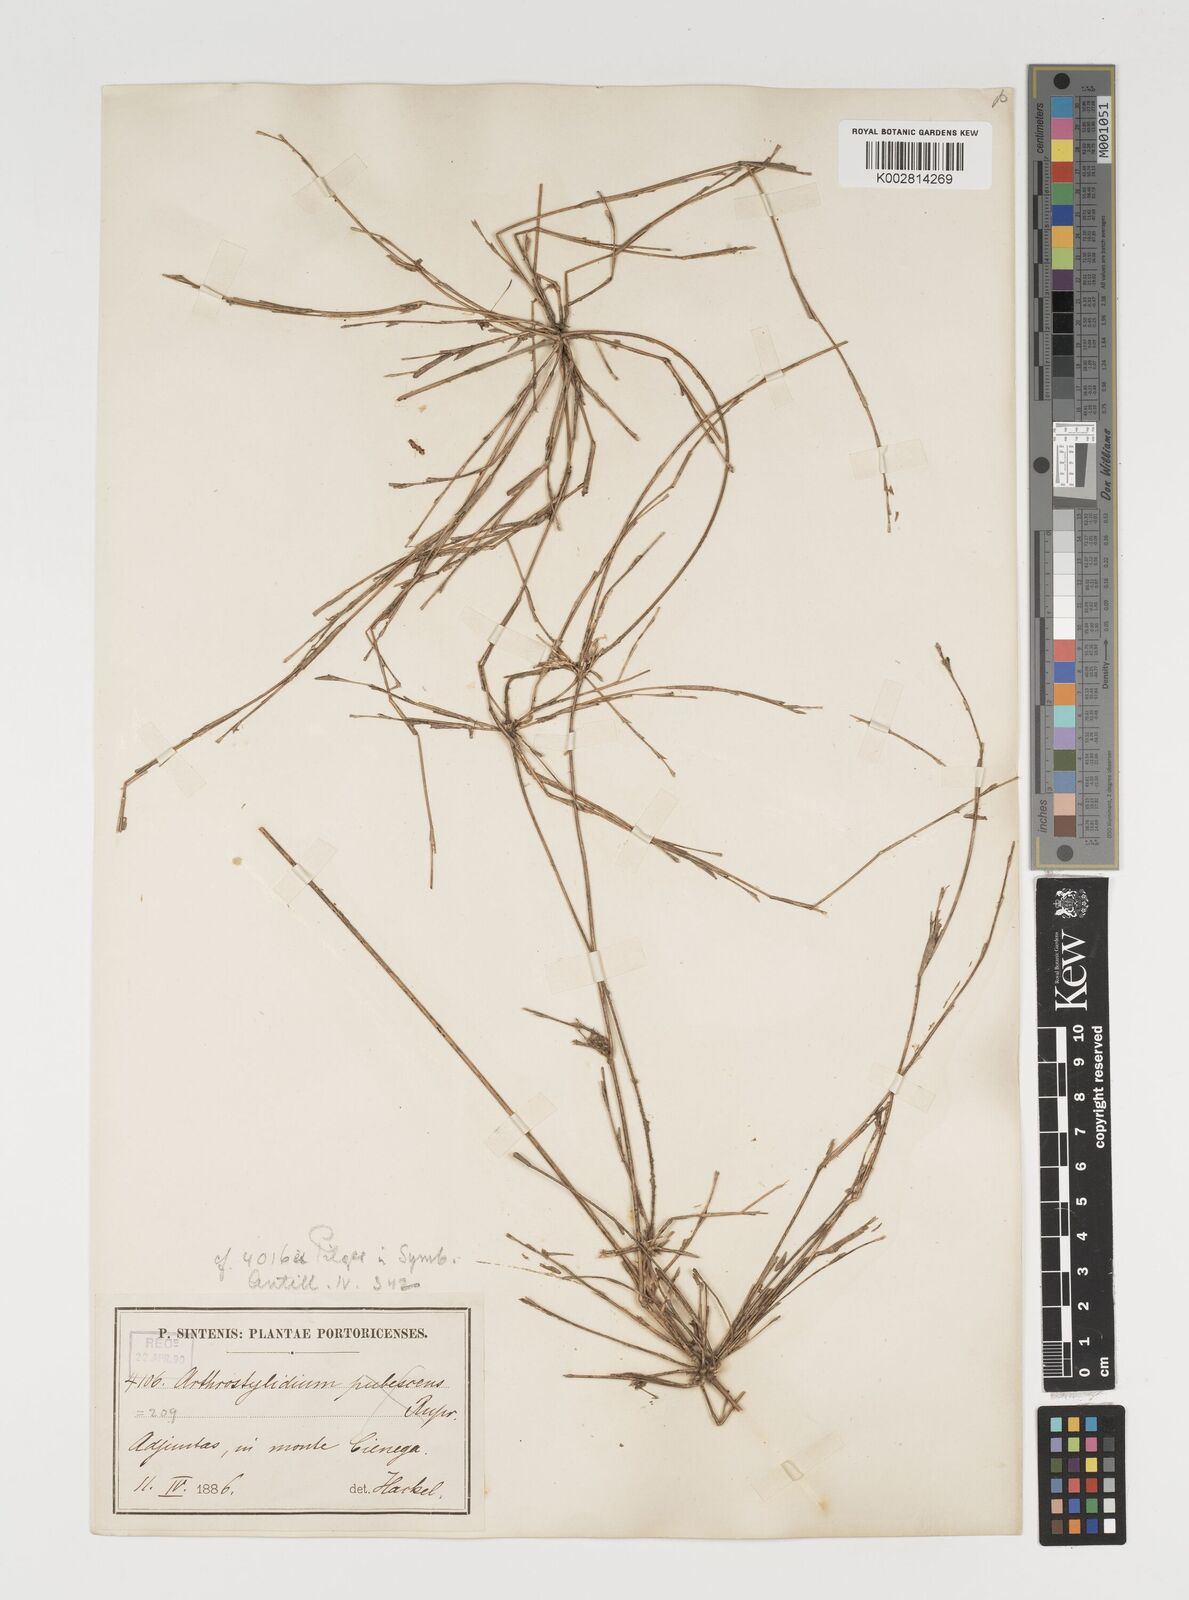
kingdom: Plantae
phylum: Tracheophyta
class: Liliopsida
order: Poales
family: Poaceae
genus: Arthrostylidium
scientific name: Arthrostylidium multispicatum
